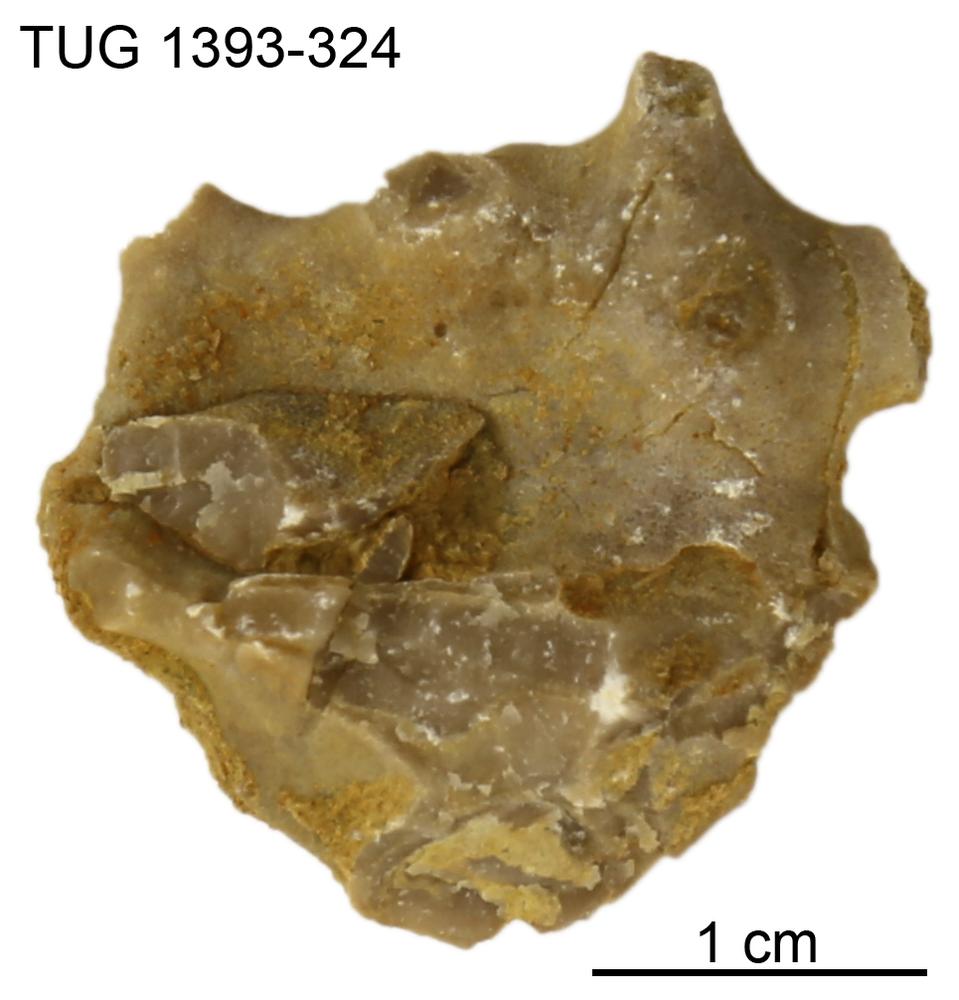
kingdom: Animalia
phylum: Bryozoa
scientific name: Bryozoa
